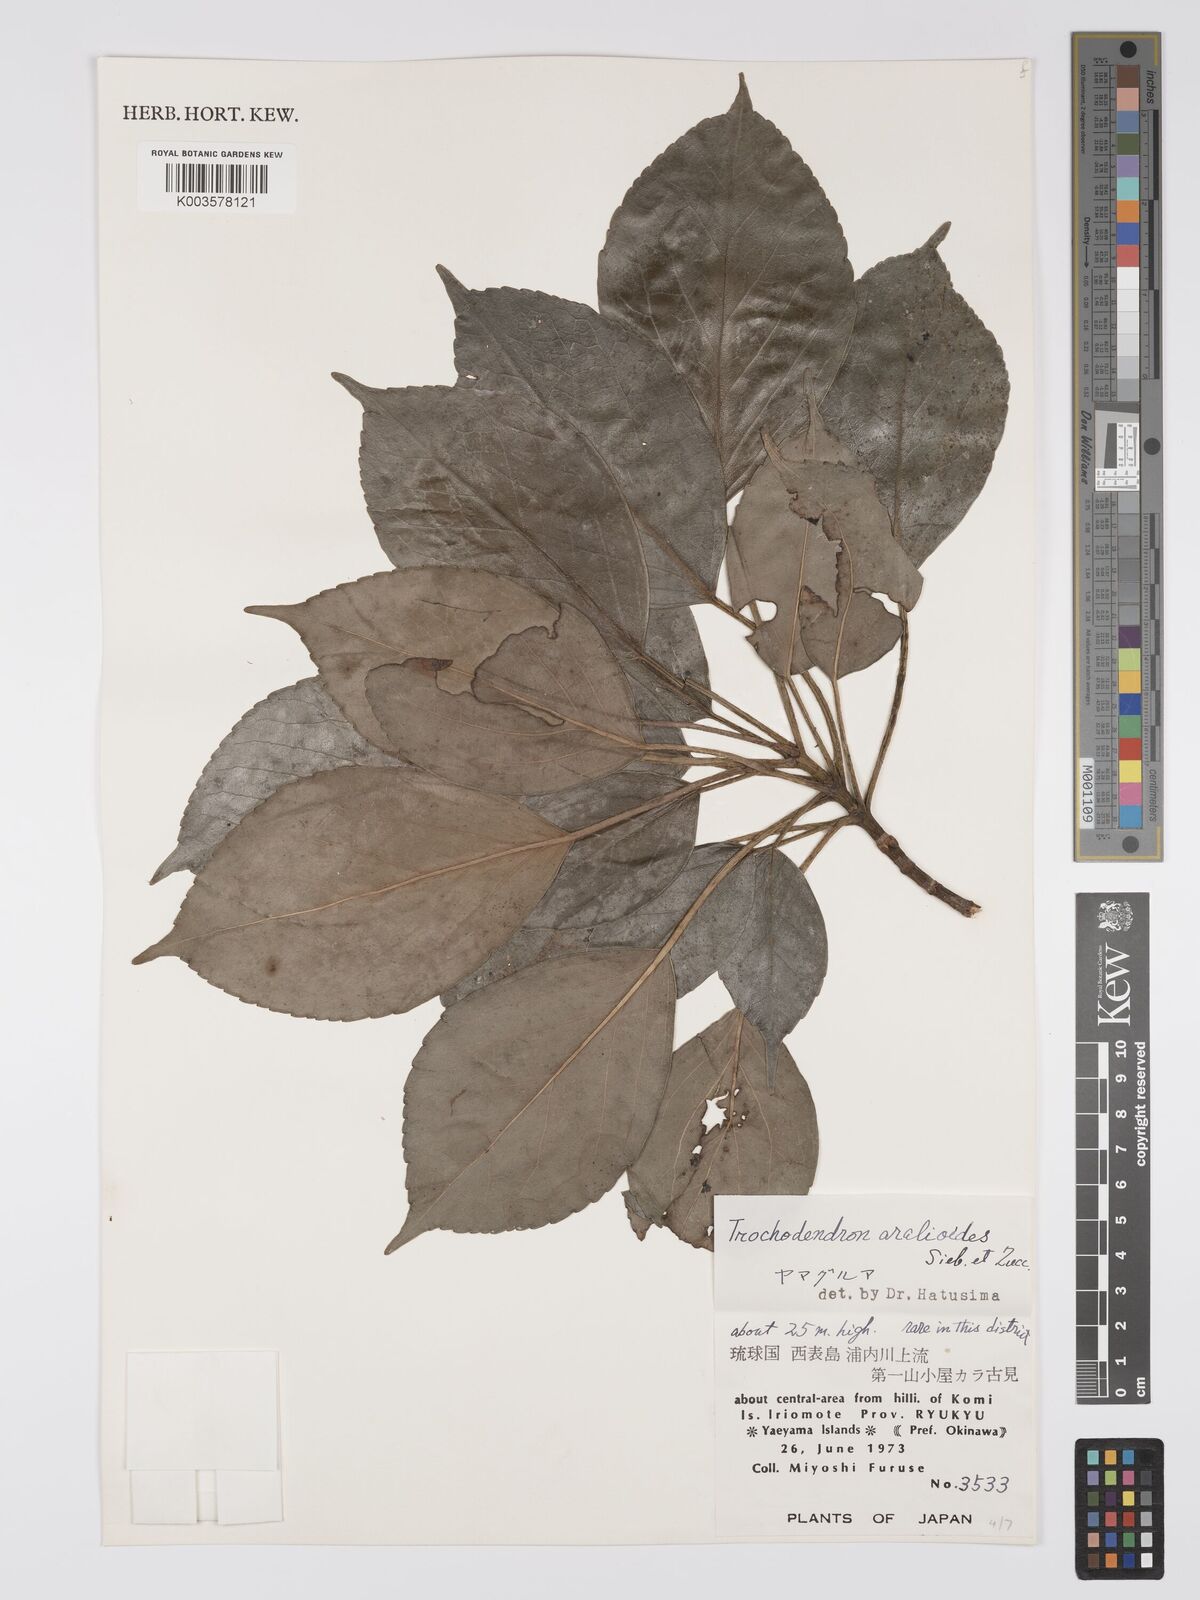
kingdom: Plantae
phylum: Tracheophyta
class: Magnoliopsida
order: Trochodendrales
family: Trochodendraceae
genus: Trochodendron
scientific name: Trochodendron aralioides
